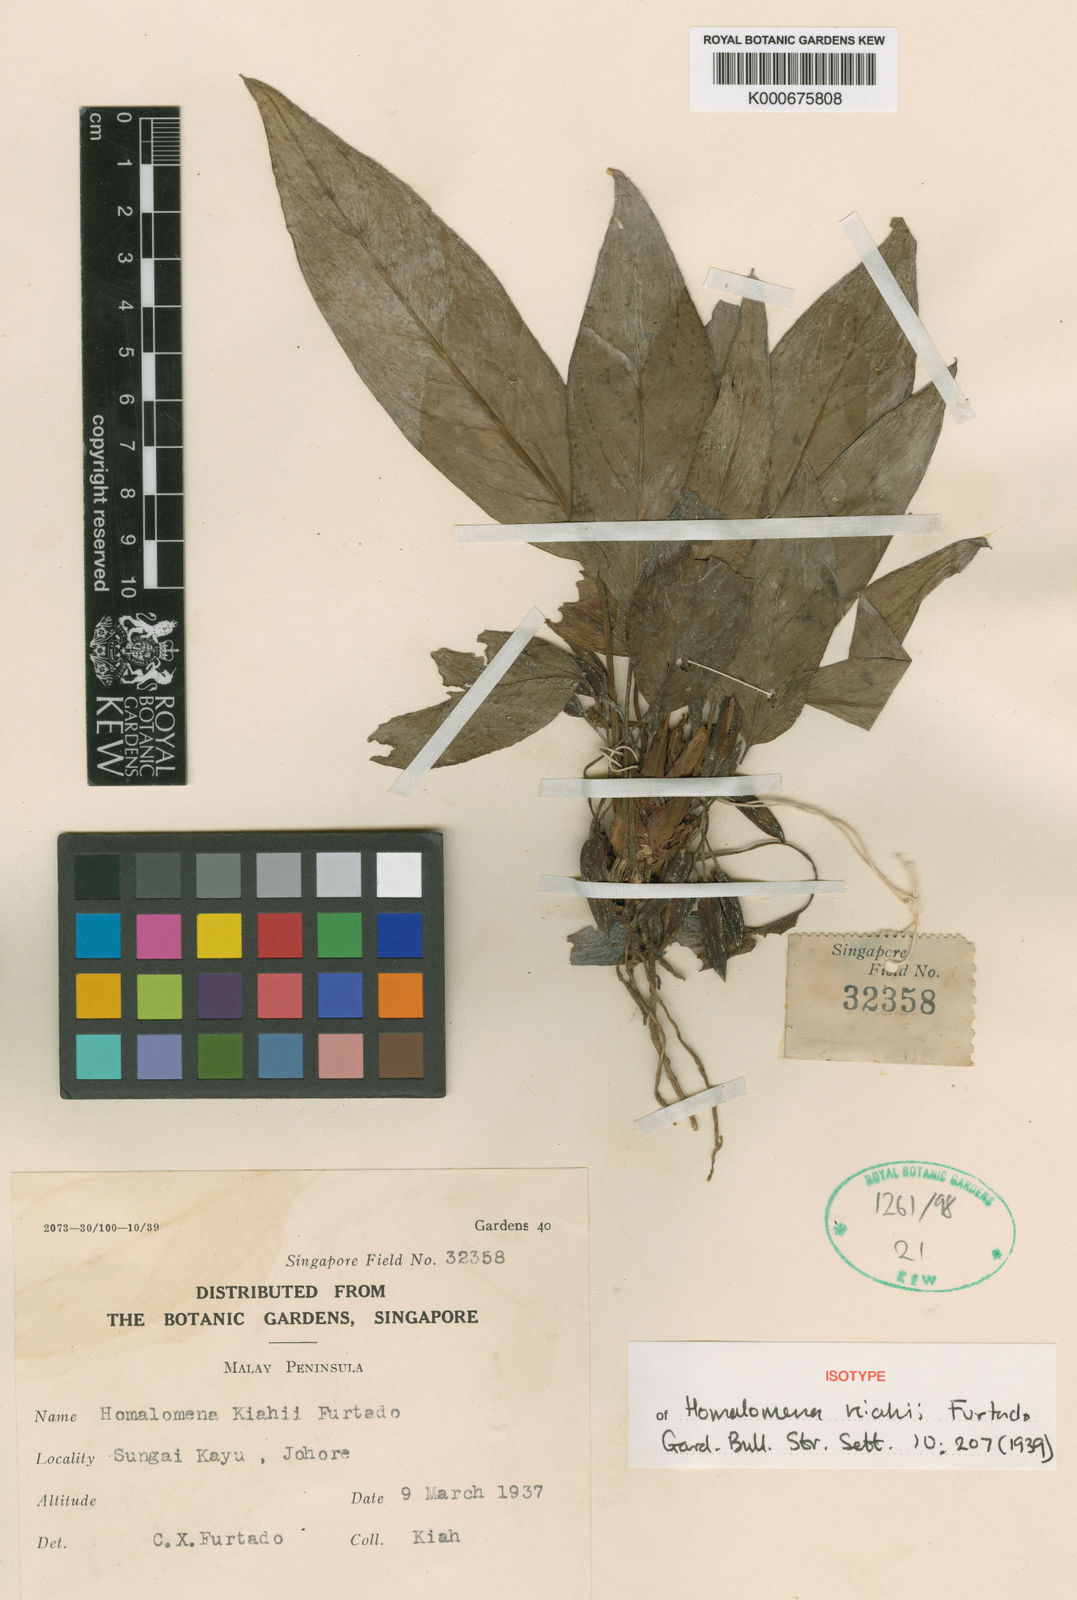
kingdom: Plantae
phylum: Tracheophyta
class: Liliopsida
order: Alismatales
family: Araceae
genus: Homalomena
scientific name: Homalomena kiahii
